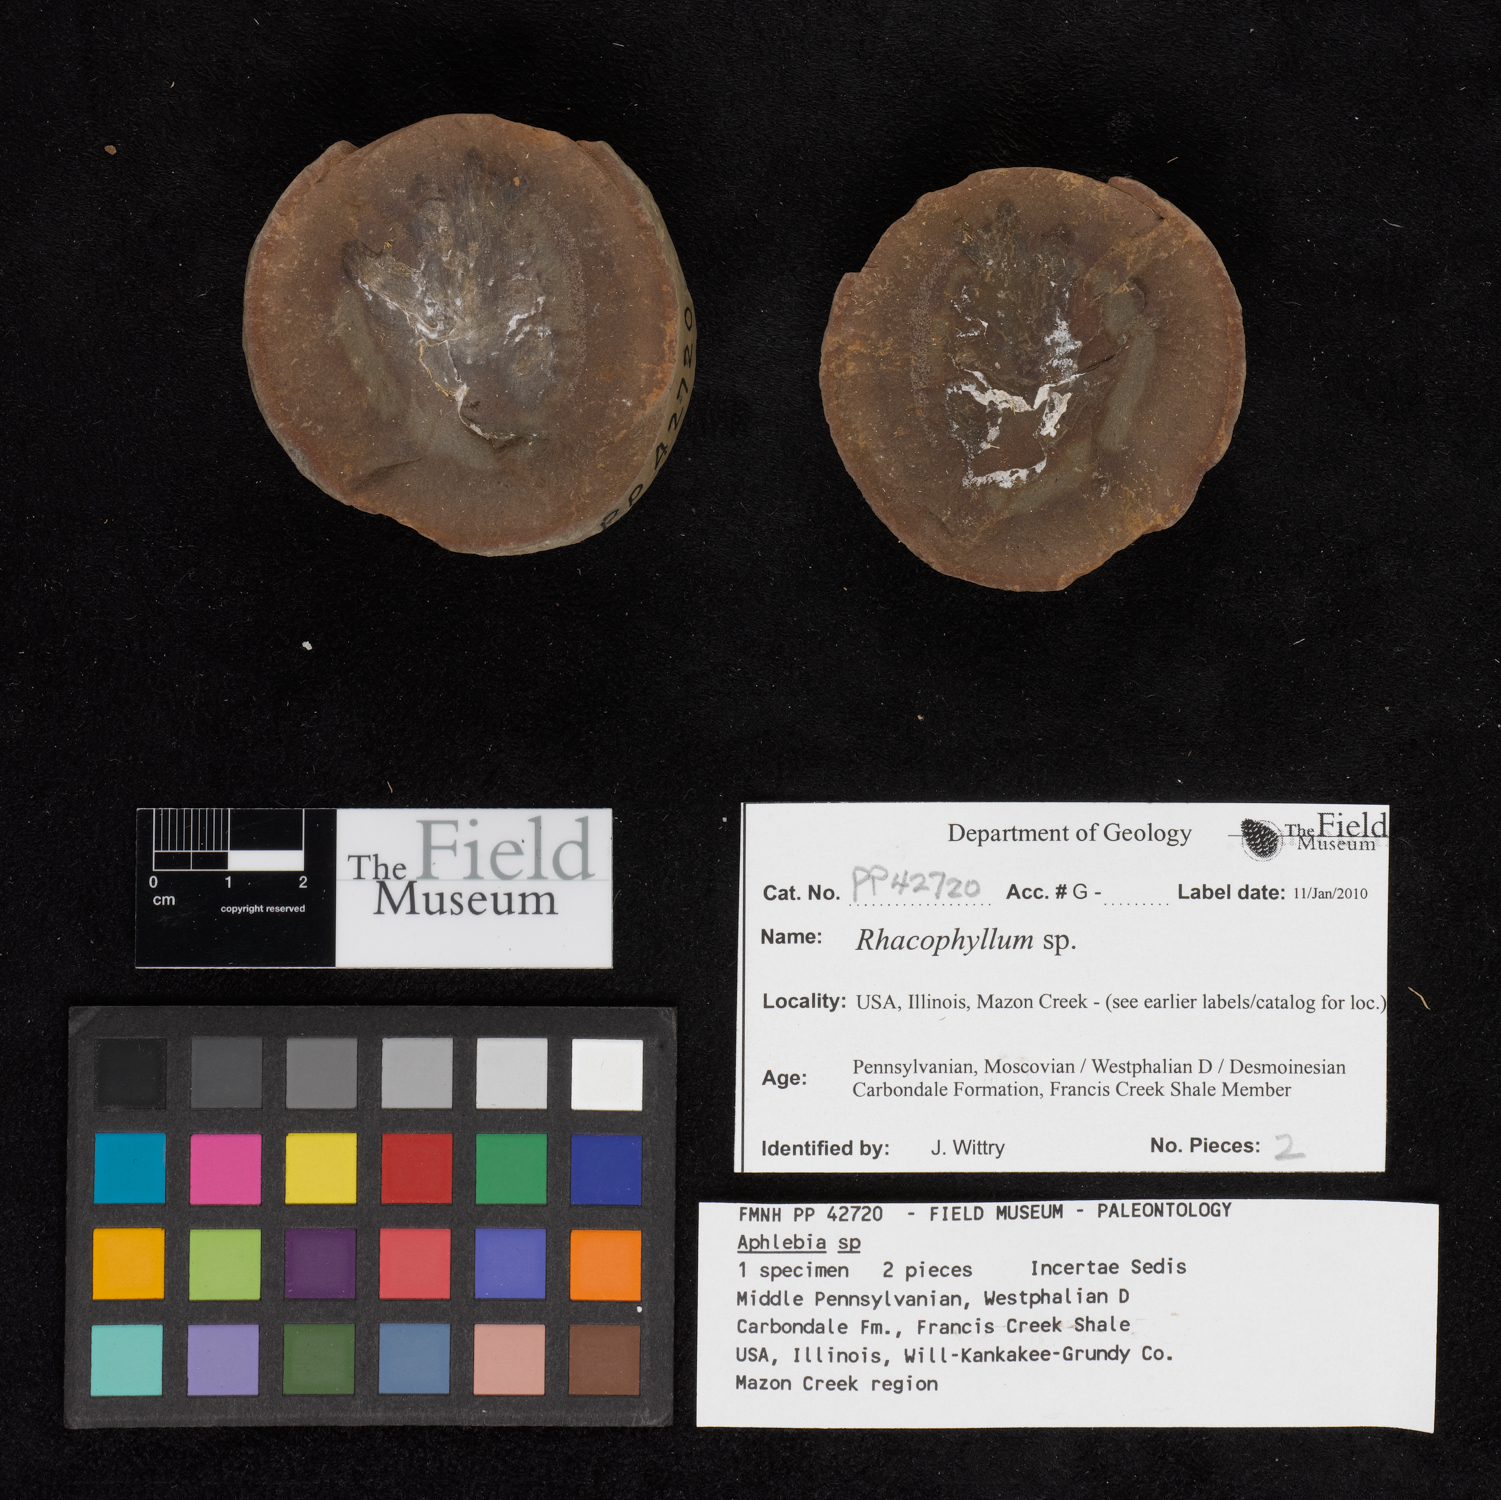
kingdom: Plantae
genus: Rhacophyllum
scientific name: Rhacophyllum
